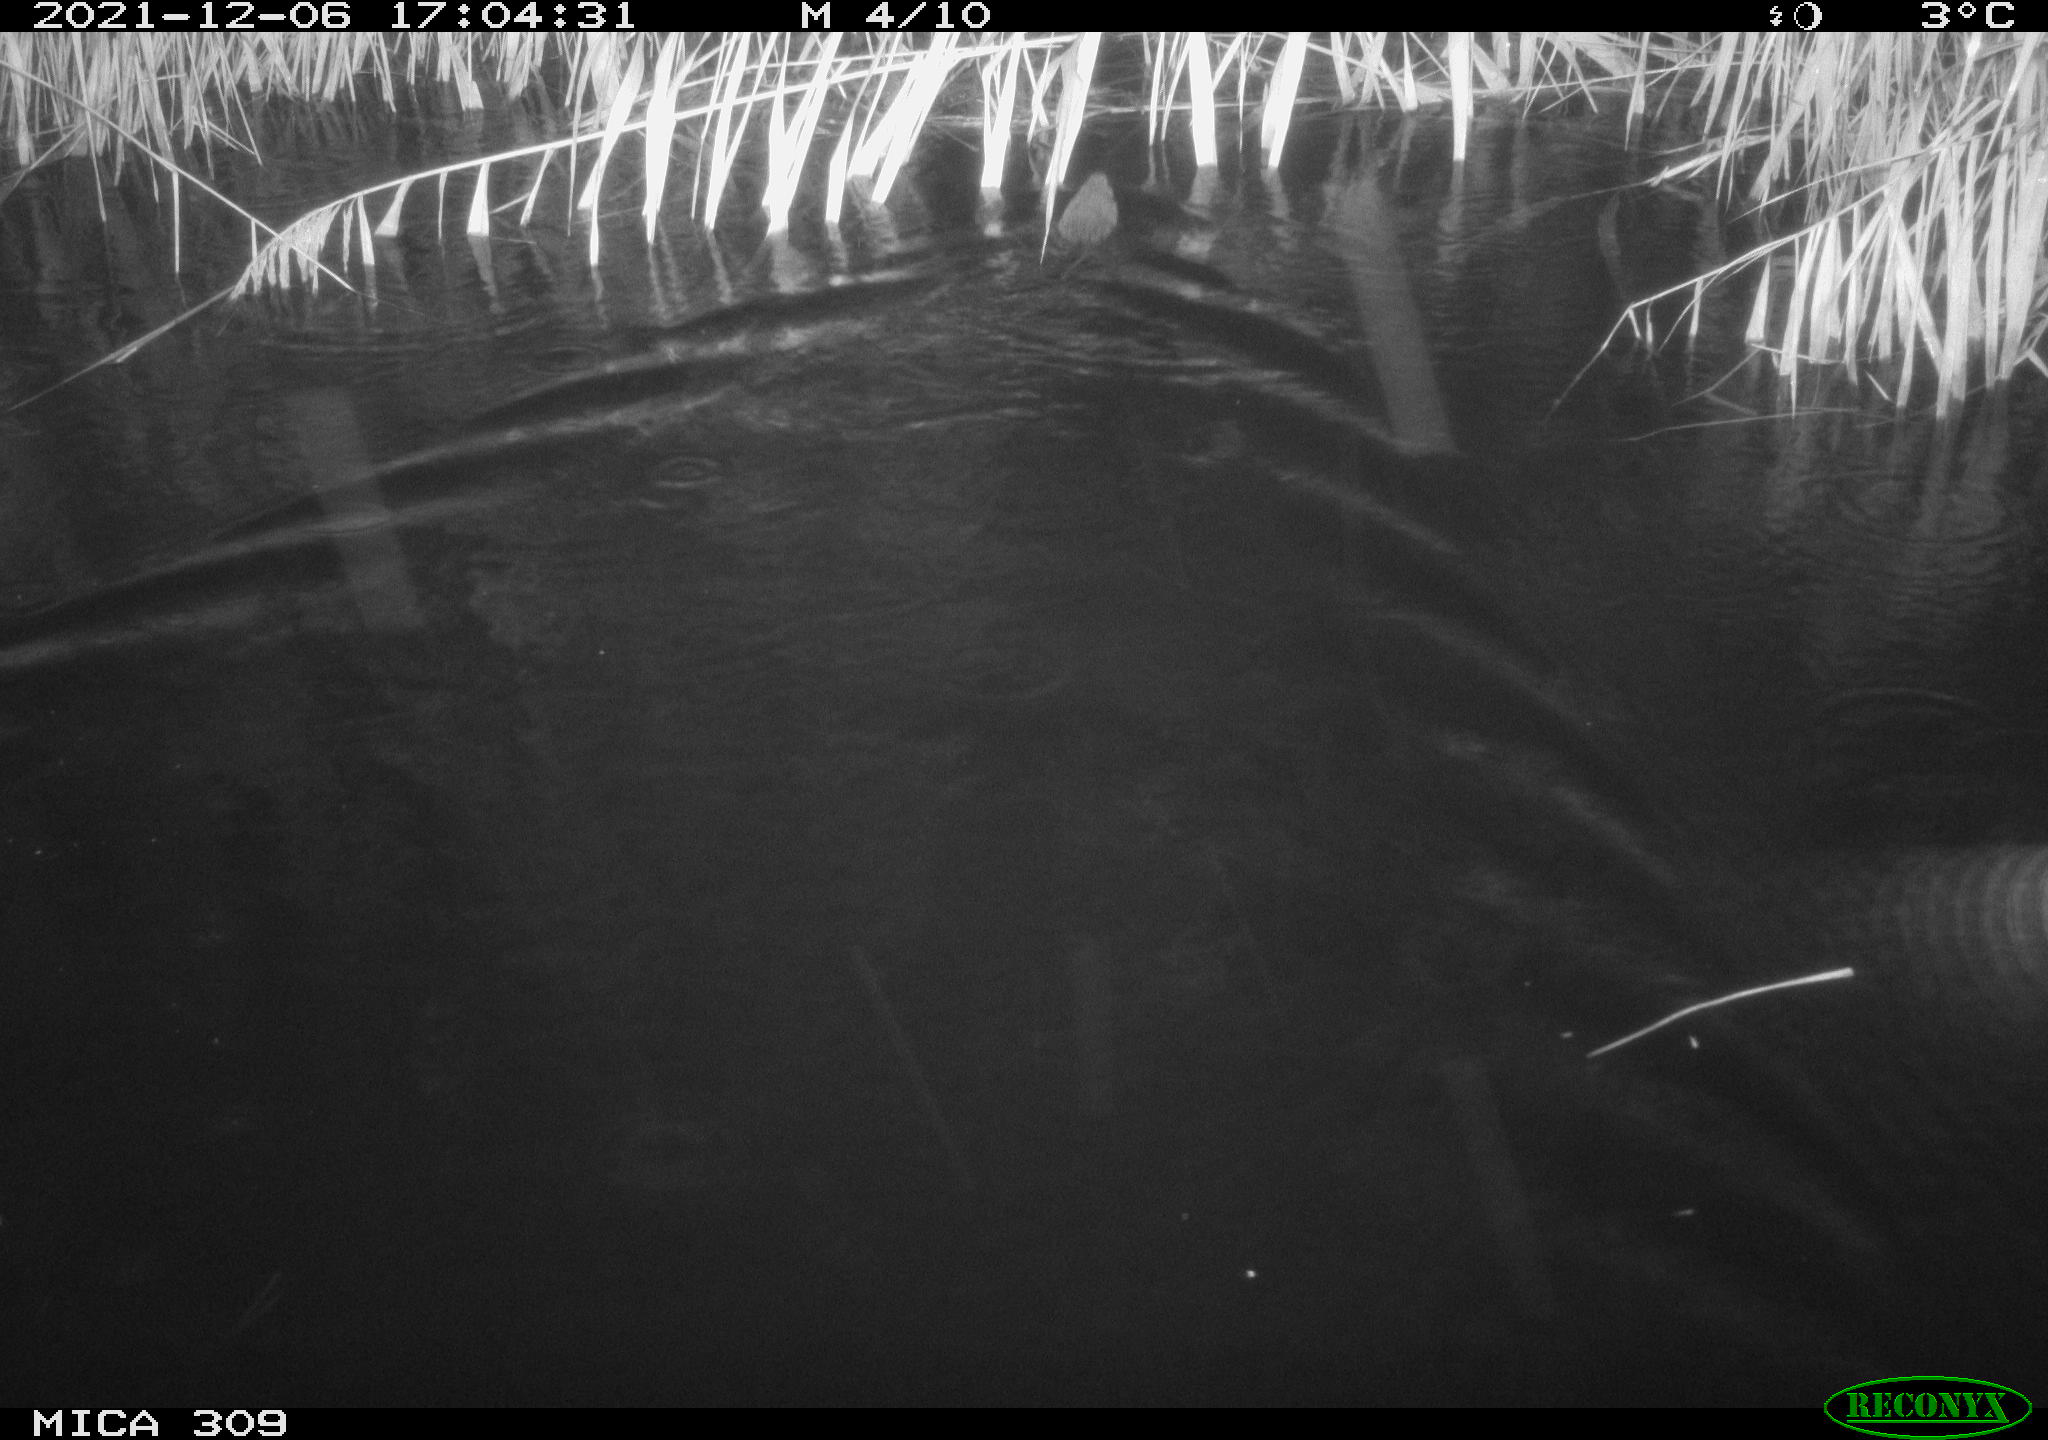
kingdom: Animalia
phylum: Chordata
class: Mammalia
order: Rodentia
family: Muridae
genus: Rattus
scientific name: Rattus norvegicus
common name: Brown rat
